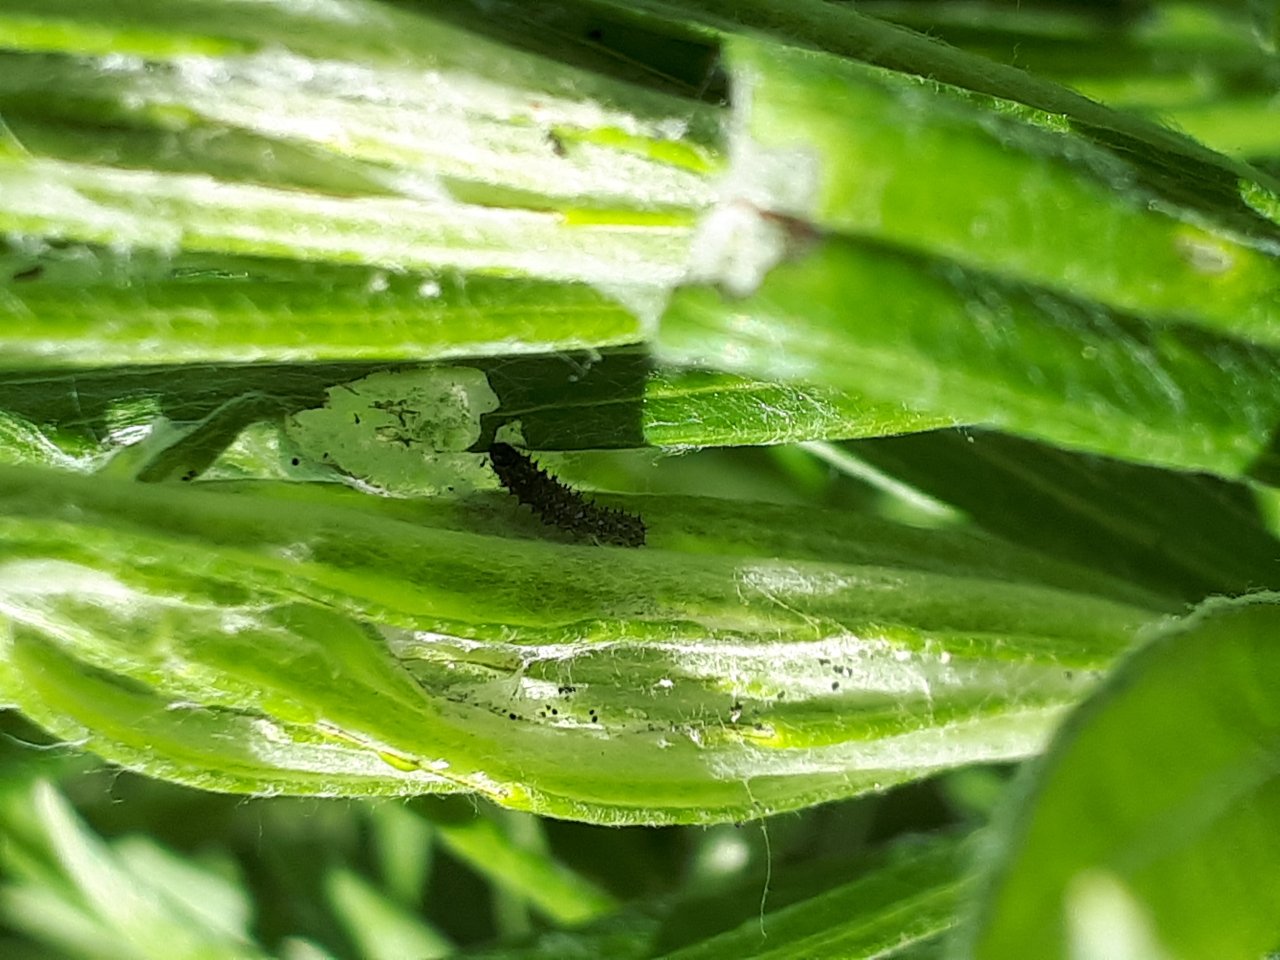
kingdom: Animalia
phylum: Arthropoda
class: Insecta
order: Lepidoptera
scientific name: Lepidoptera
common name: Butterflies
